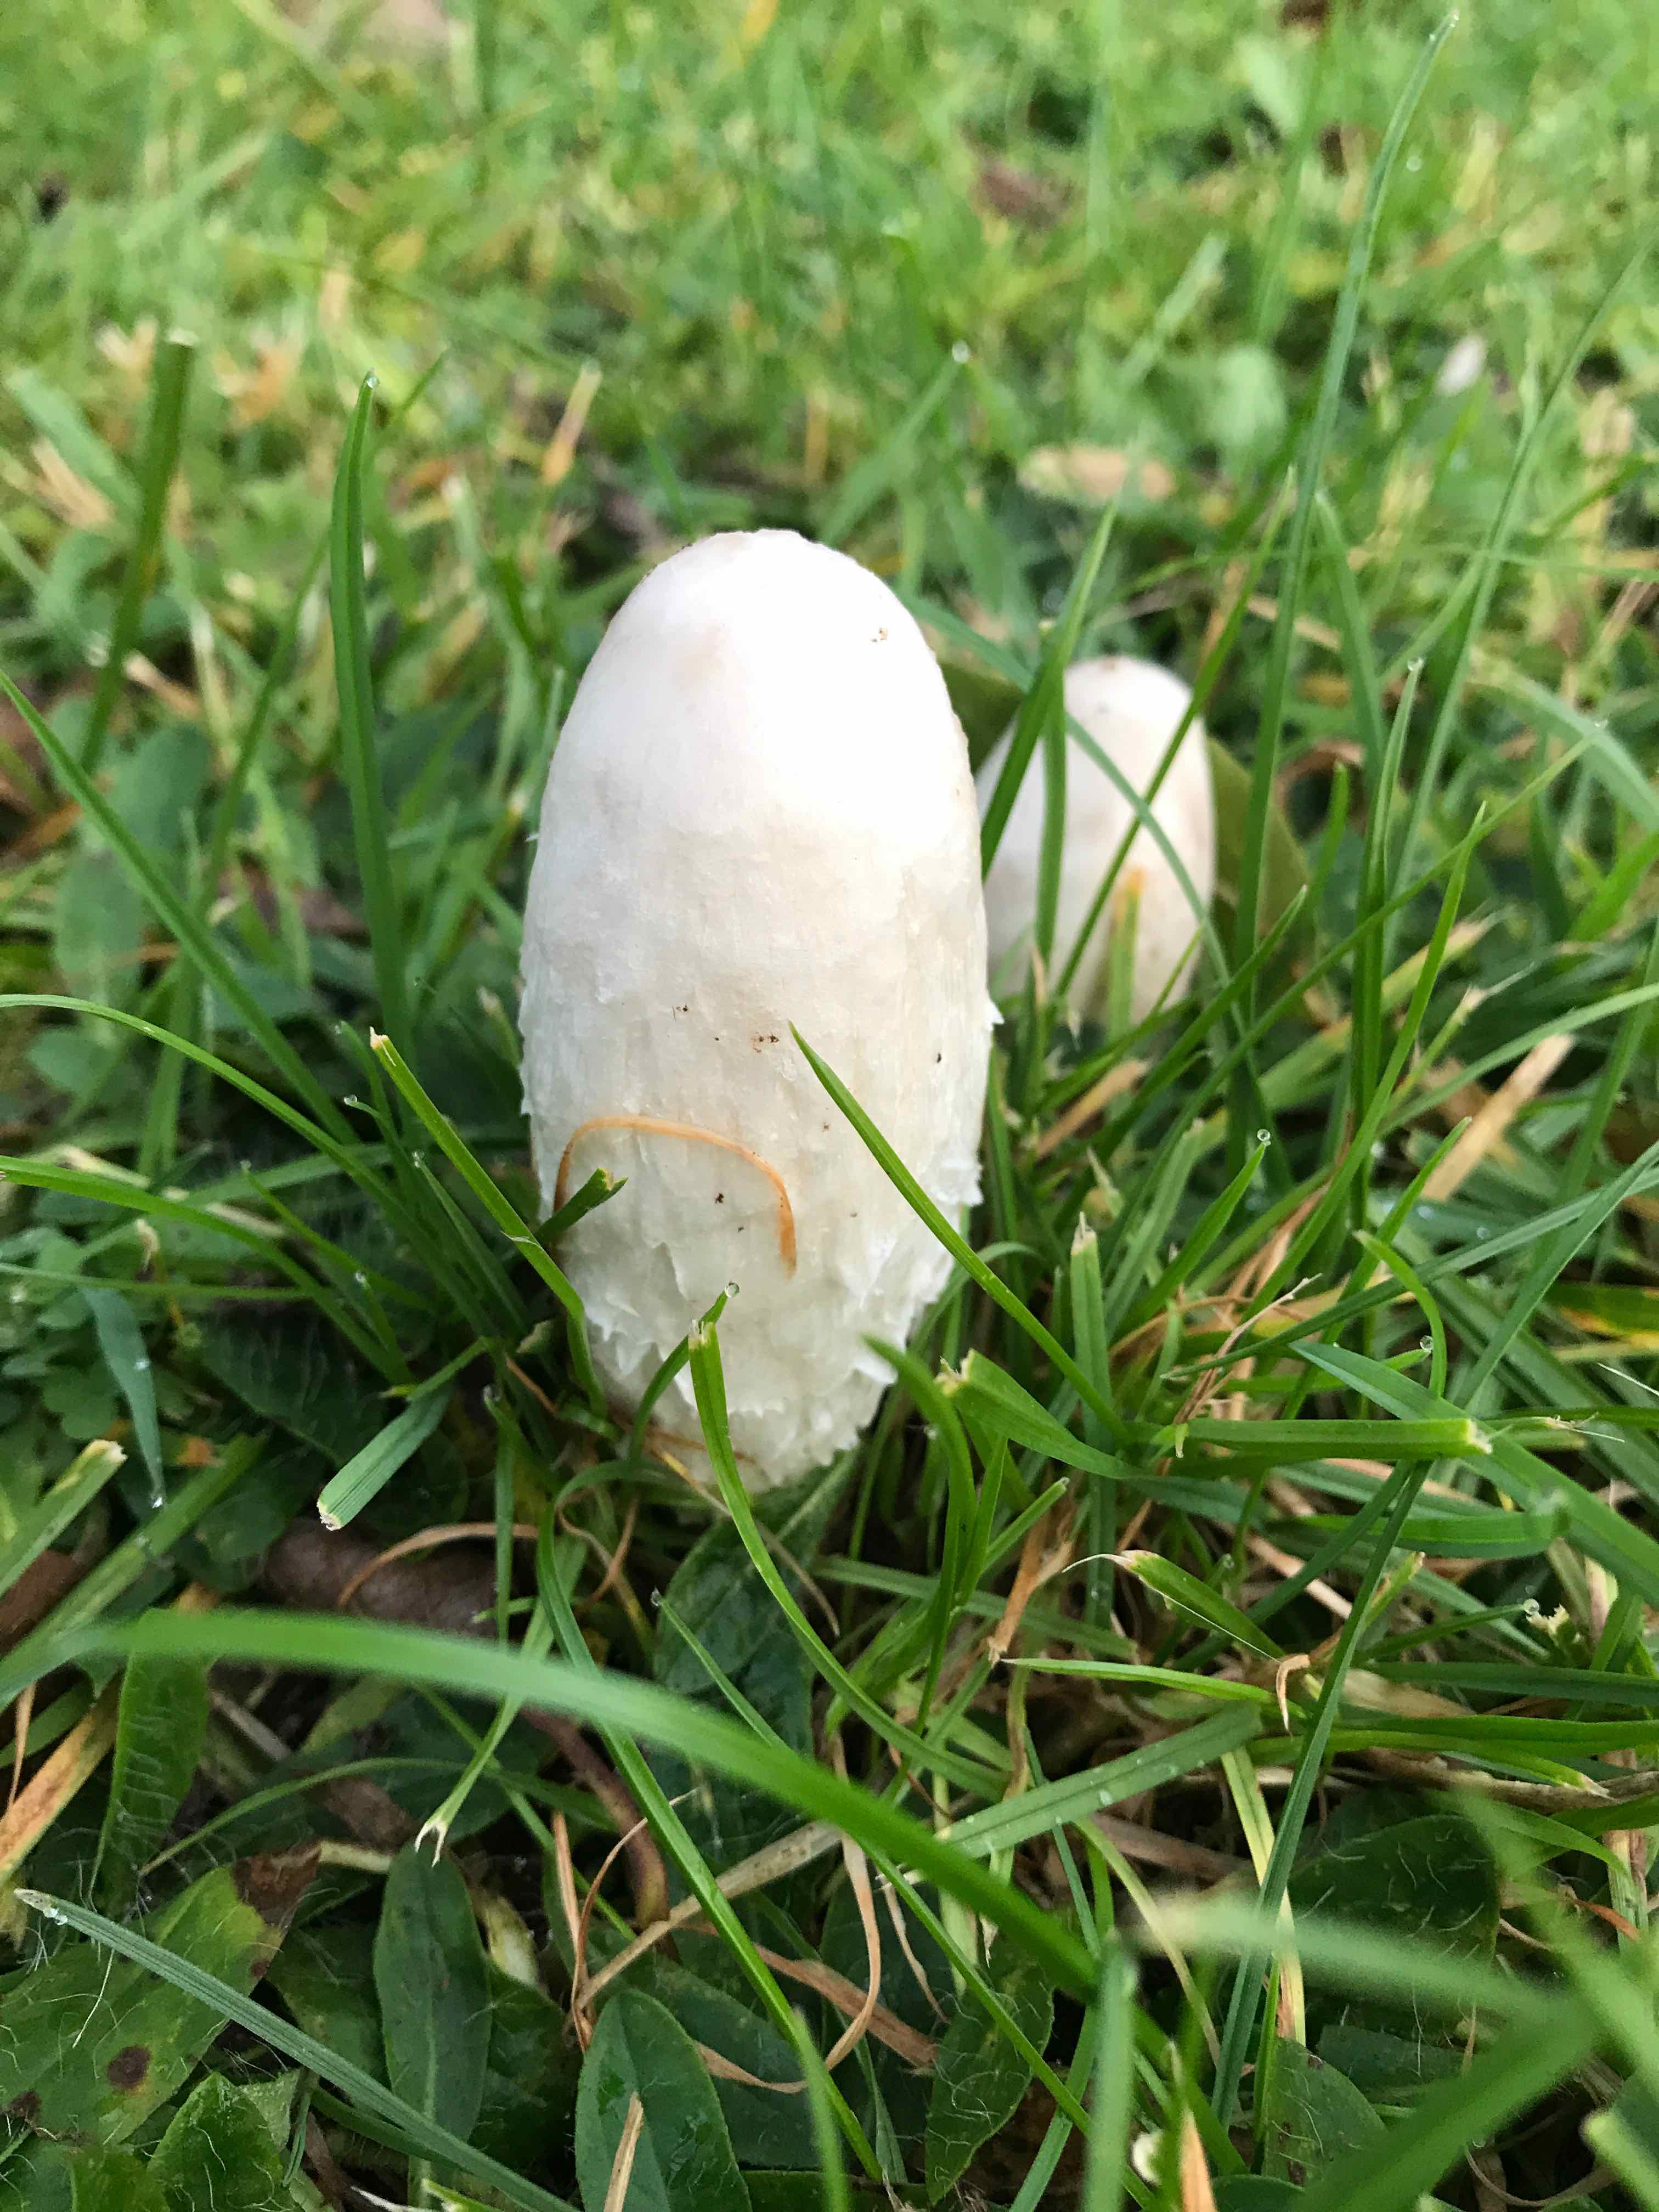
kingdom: Fungi
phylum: Basidiomycota
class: Agaricomycetes
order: Agaricales
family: Agaricaceae
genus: Coprinus
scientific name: Coprinus comatus
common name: stor parykhat
